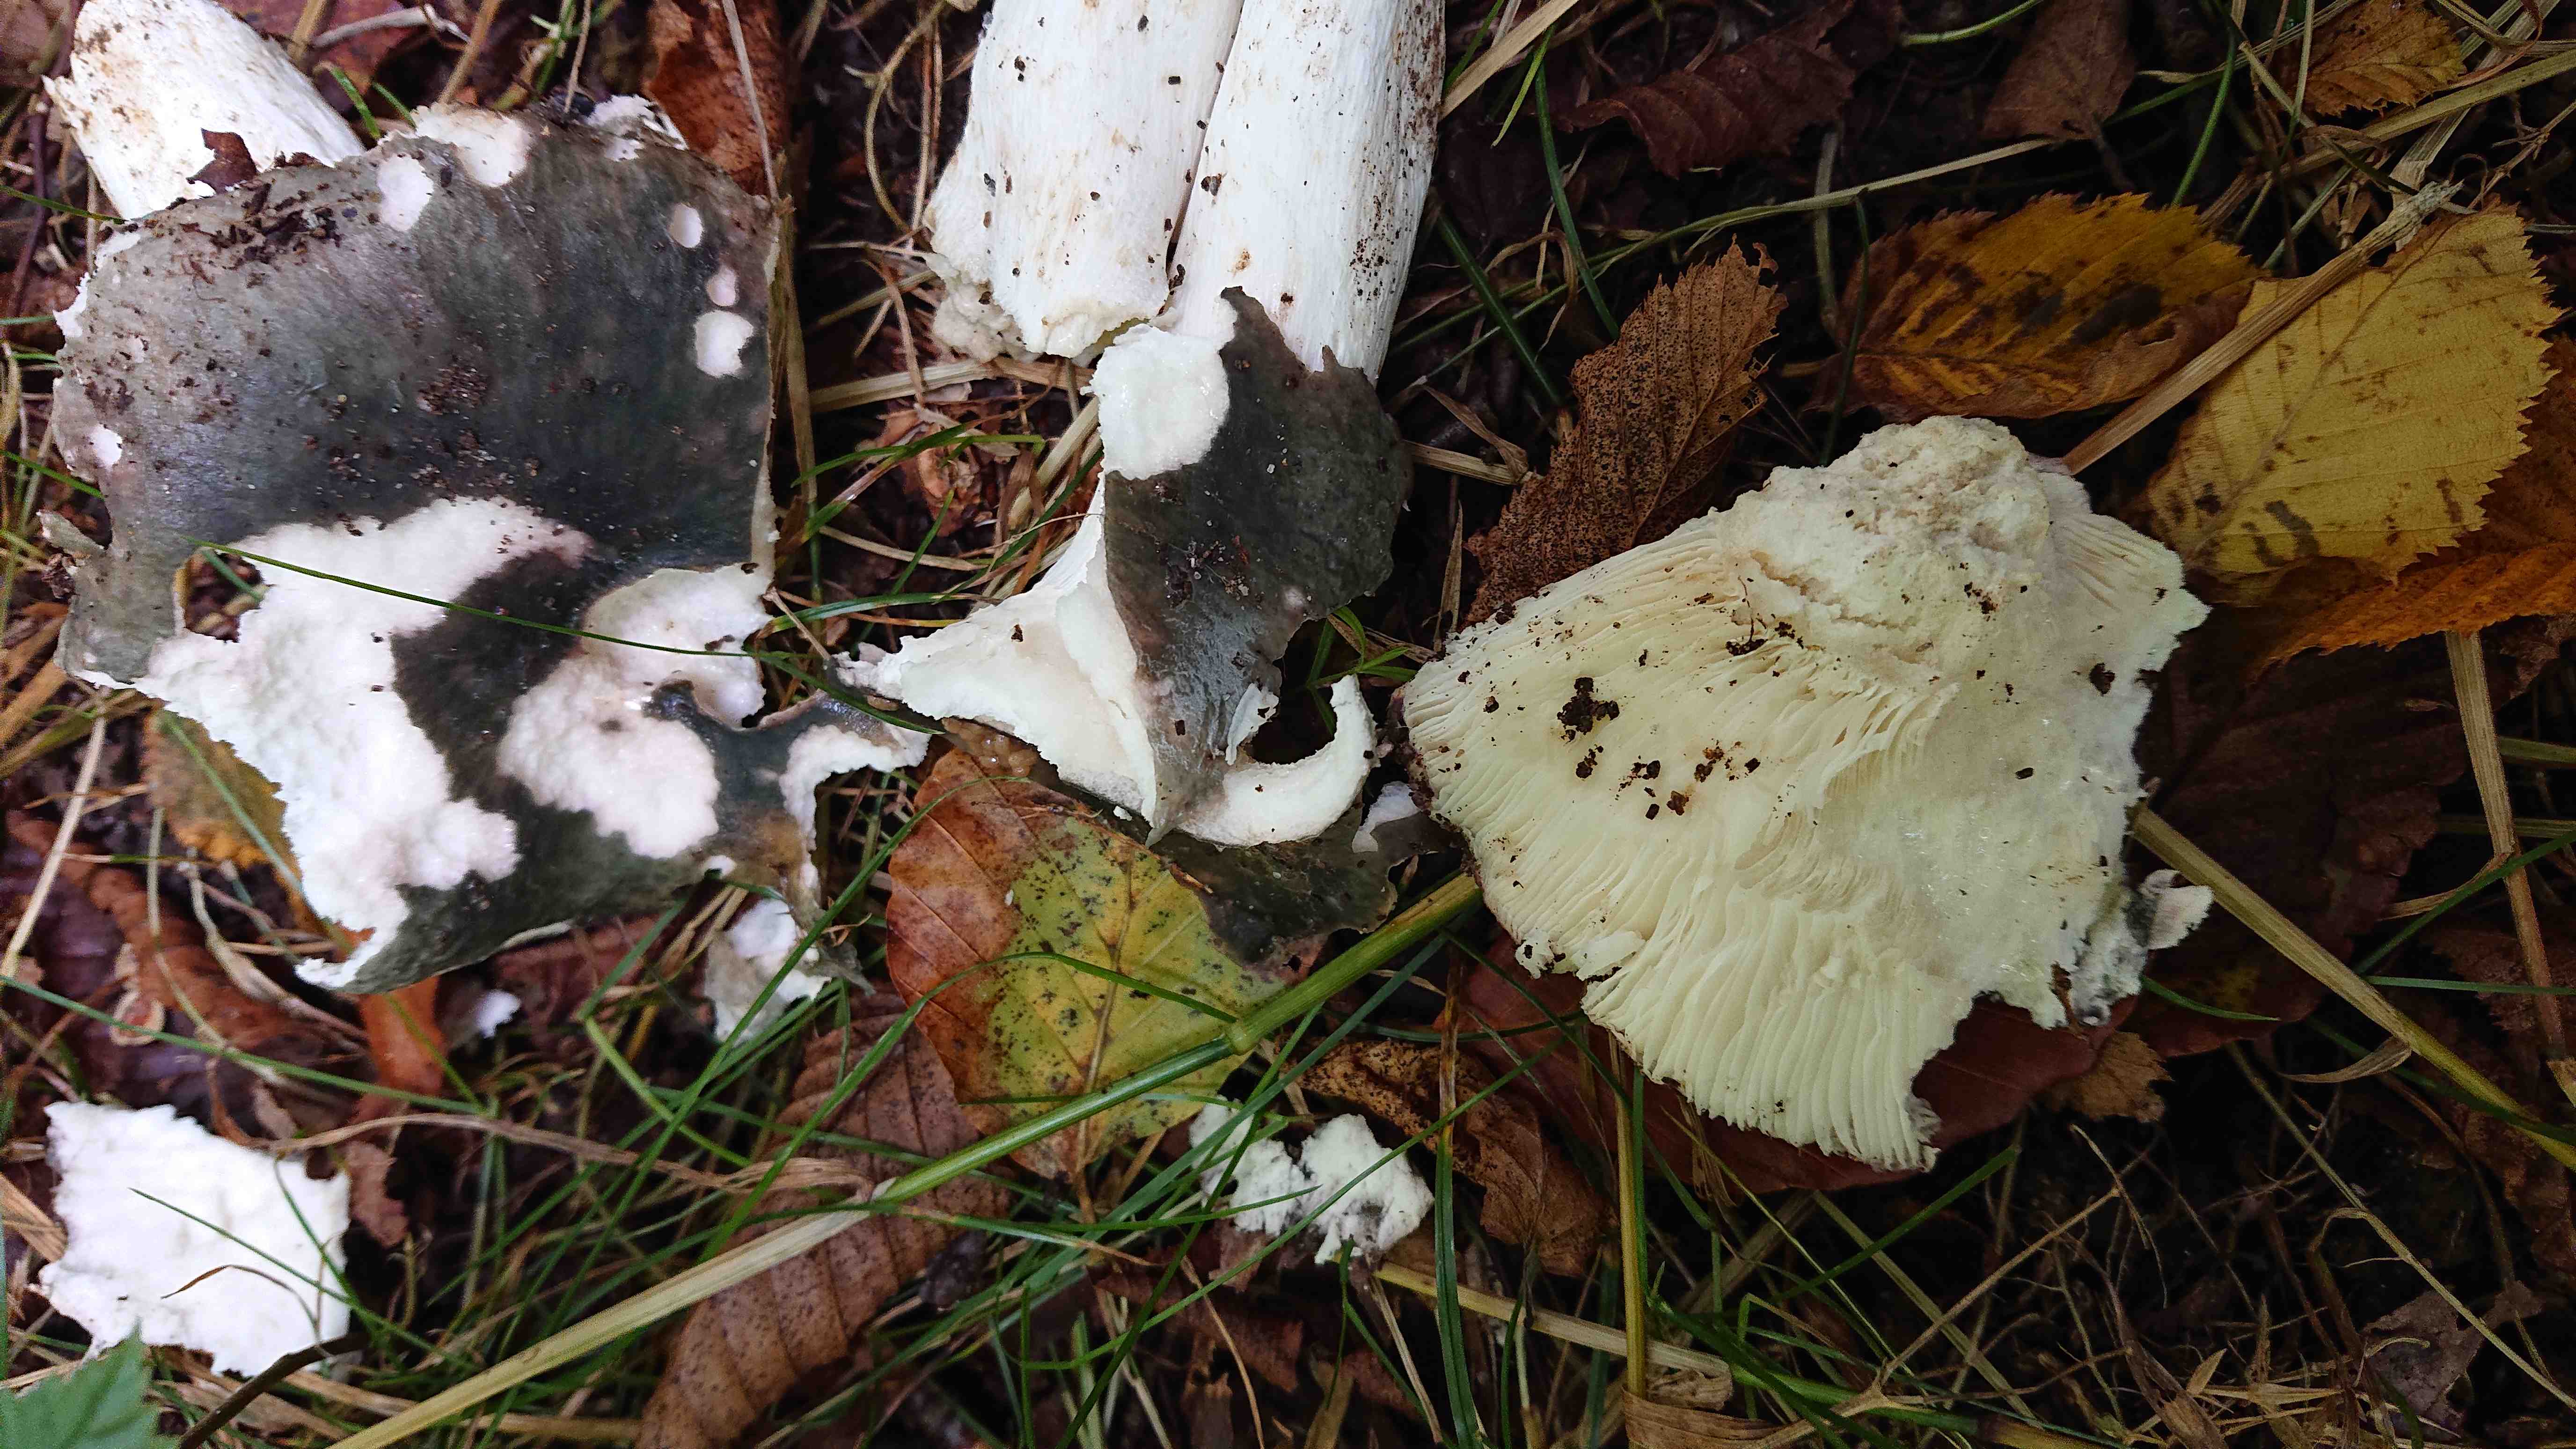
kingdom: Fungi
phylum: Basidiomycota
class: Agaricomycetes
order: Russulales
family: Russulaceae
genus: Russula
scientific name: Russula
